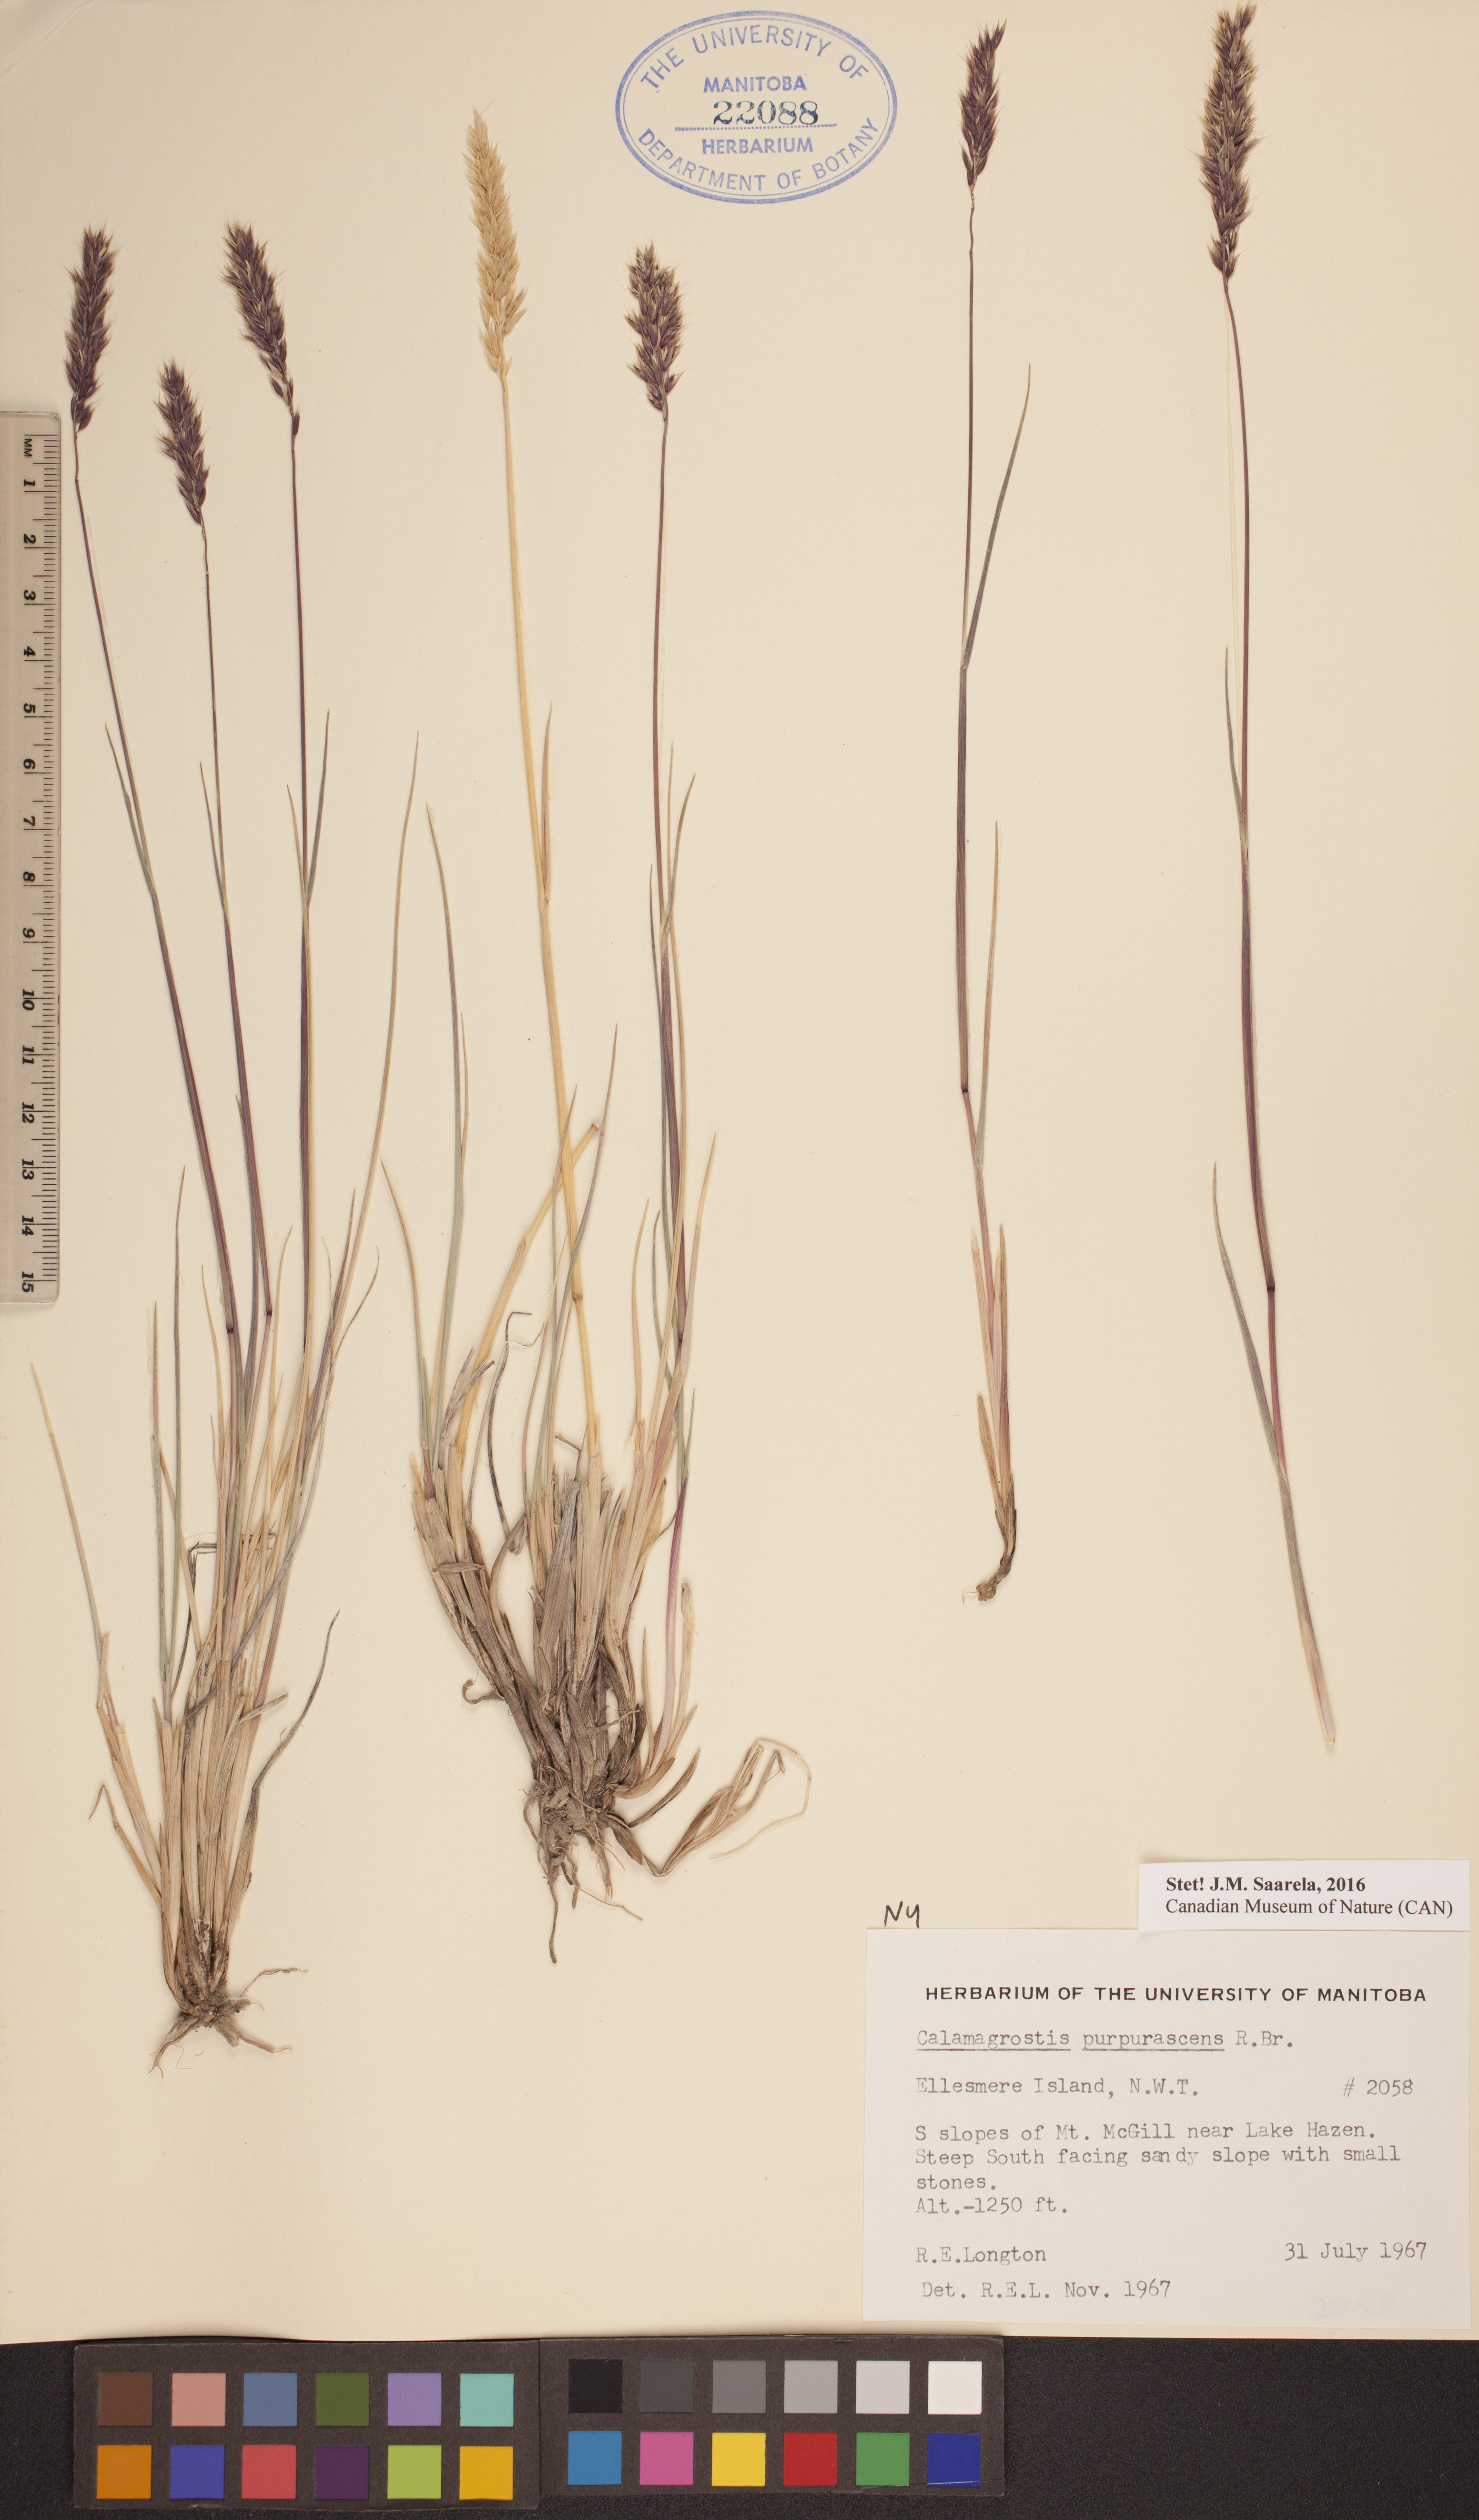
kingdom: Plantae
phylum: Tracheophyta
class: Liliopsida
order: Poales
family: Poaceae
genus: Calamagrostis
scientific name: Calamagrostis purpurascens
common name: Purple reedgrass
